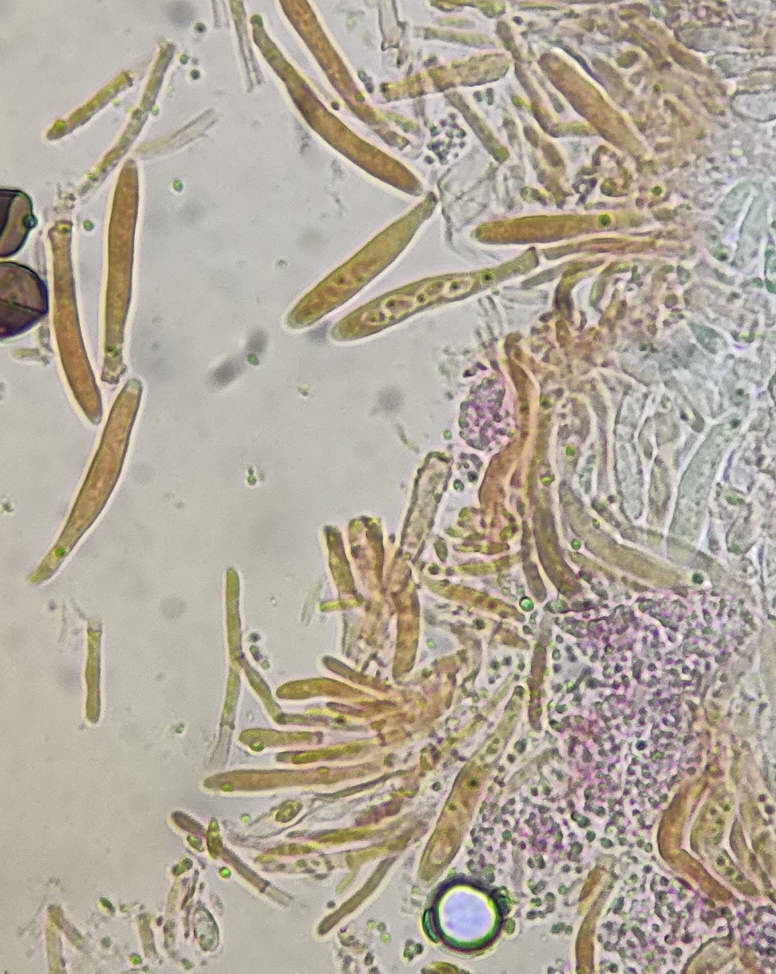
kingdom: Fungi
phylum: Ascomycota
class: Leotiomycetes
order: Helotiales
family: Hyaloscyphaceae
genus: Cistella
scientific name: Cistella acuum
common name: nåle-sirskive
